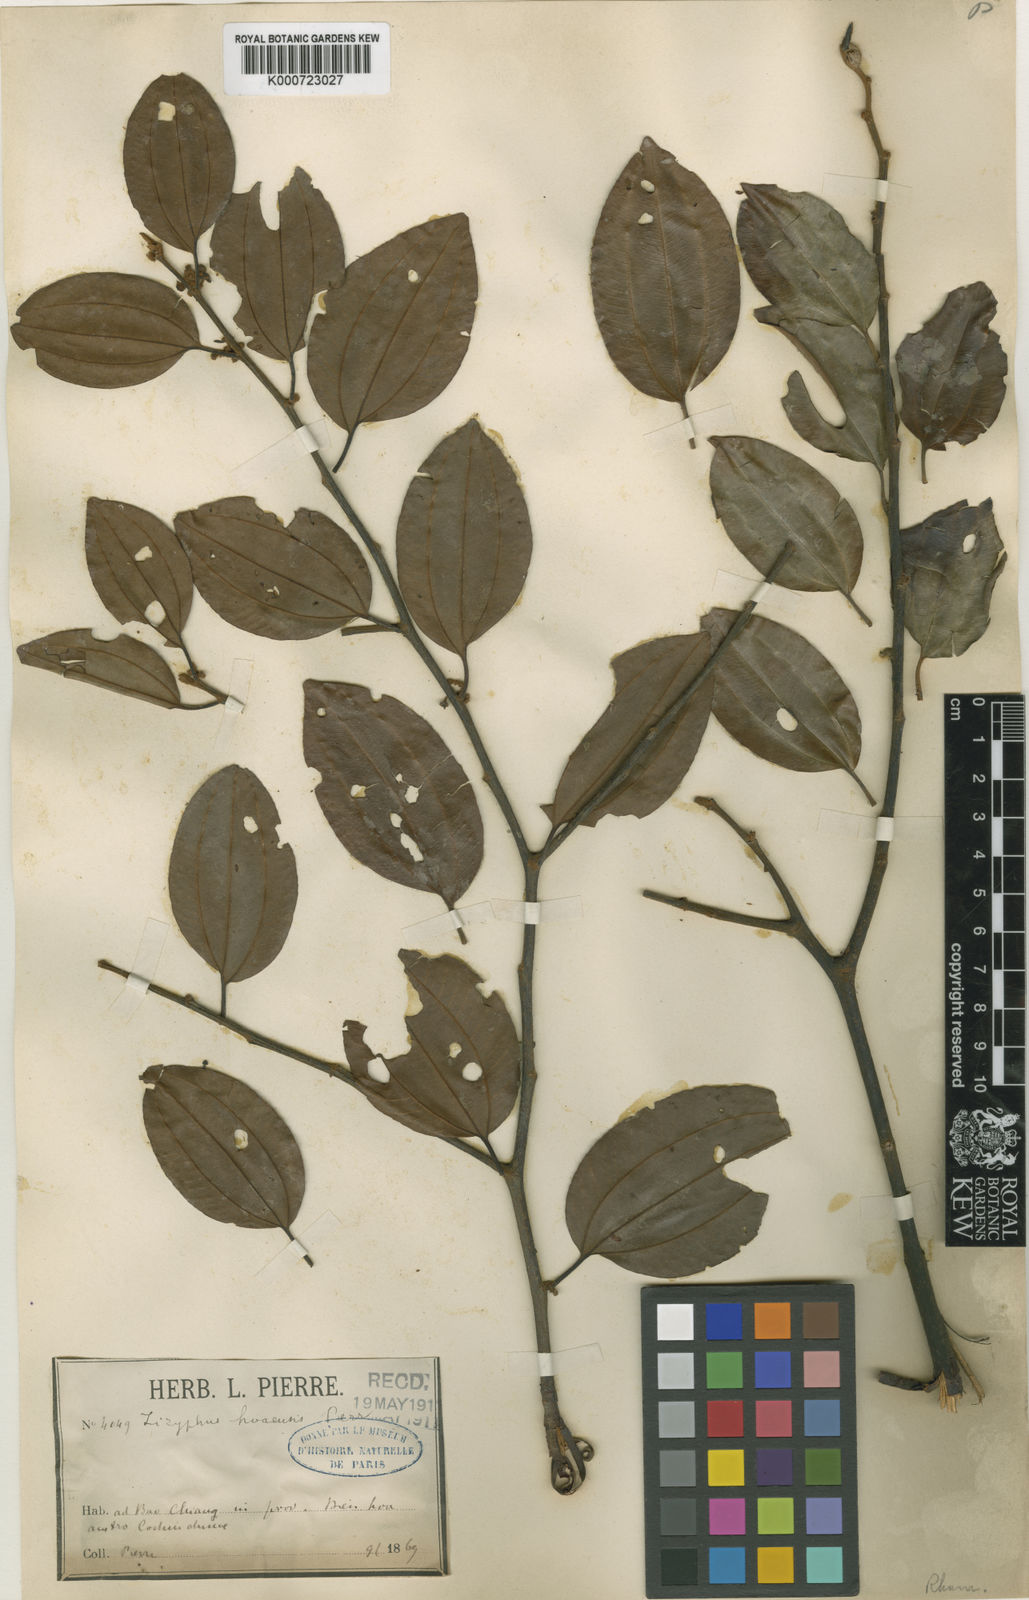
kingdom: Plantae
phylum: Tracheophyta
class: Magnoliopsida
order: Rosales
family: Rhamnaceae
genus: Ziziphus
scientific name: Ziziphus hoaensis
